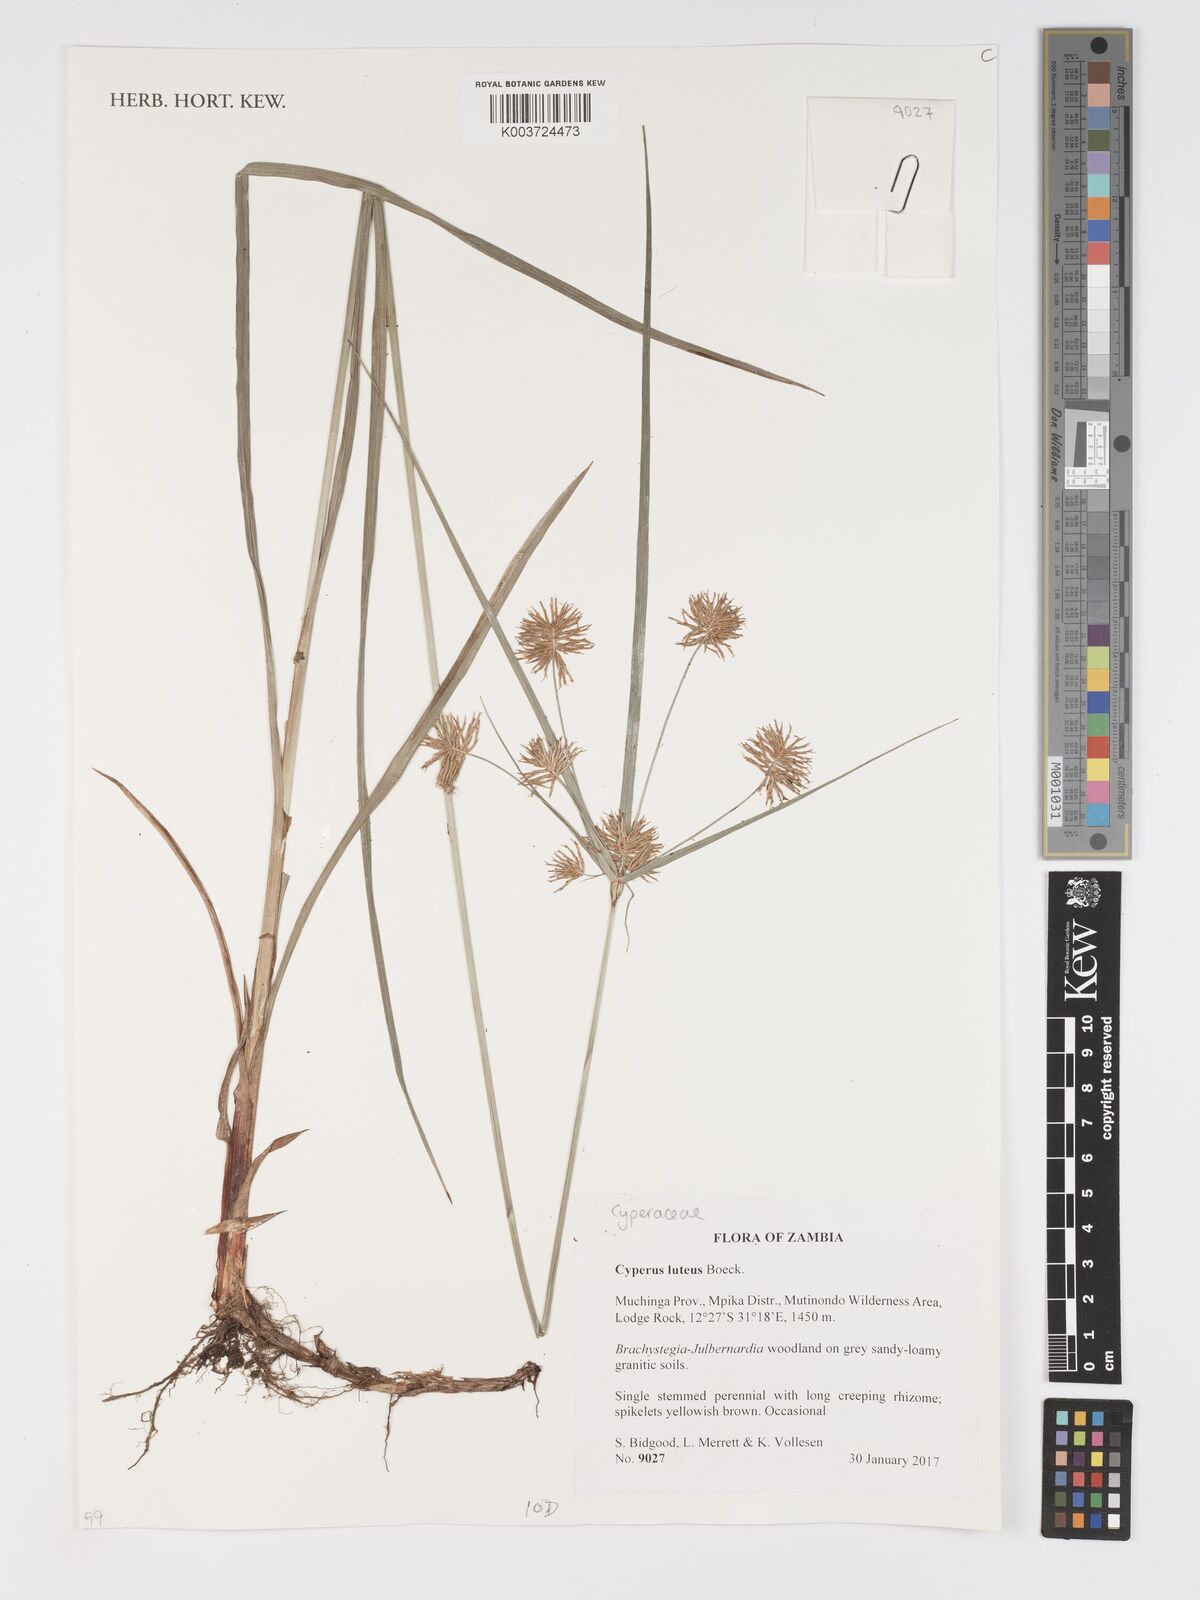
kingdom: Plantae
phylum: Tracheophyta
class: Liliopsida
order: Poales
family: Cyperaceae
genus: Cyperus
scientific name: Cyperus luteus
